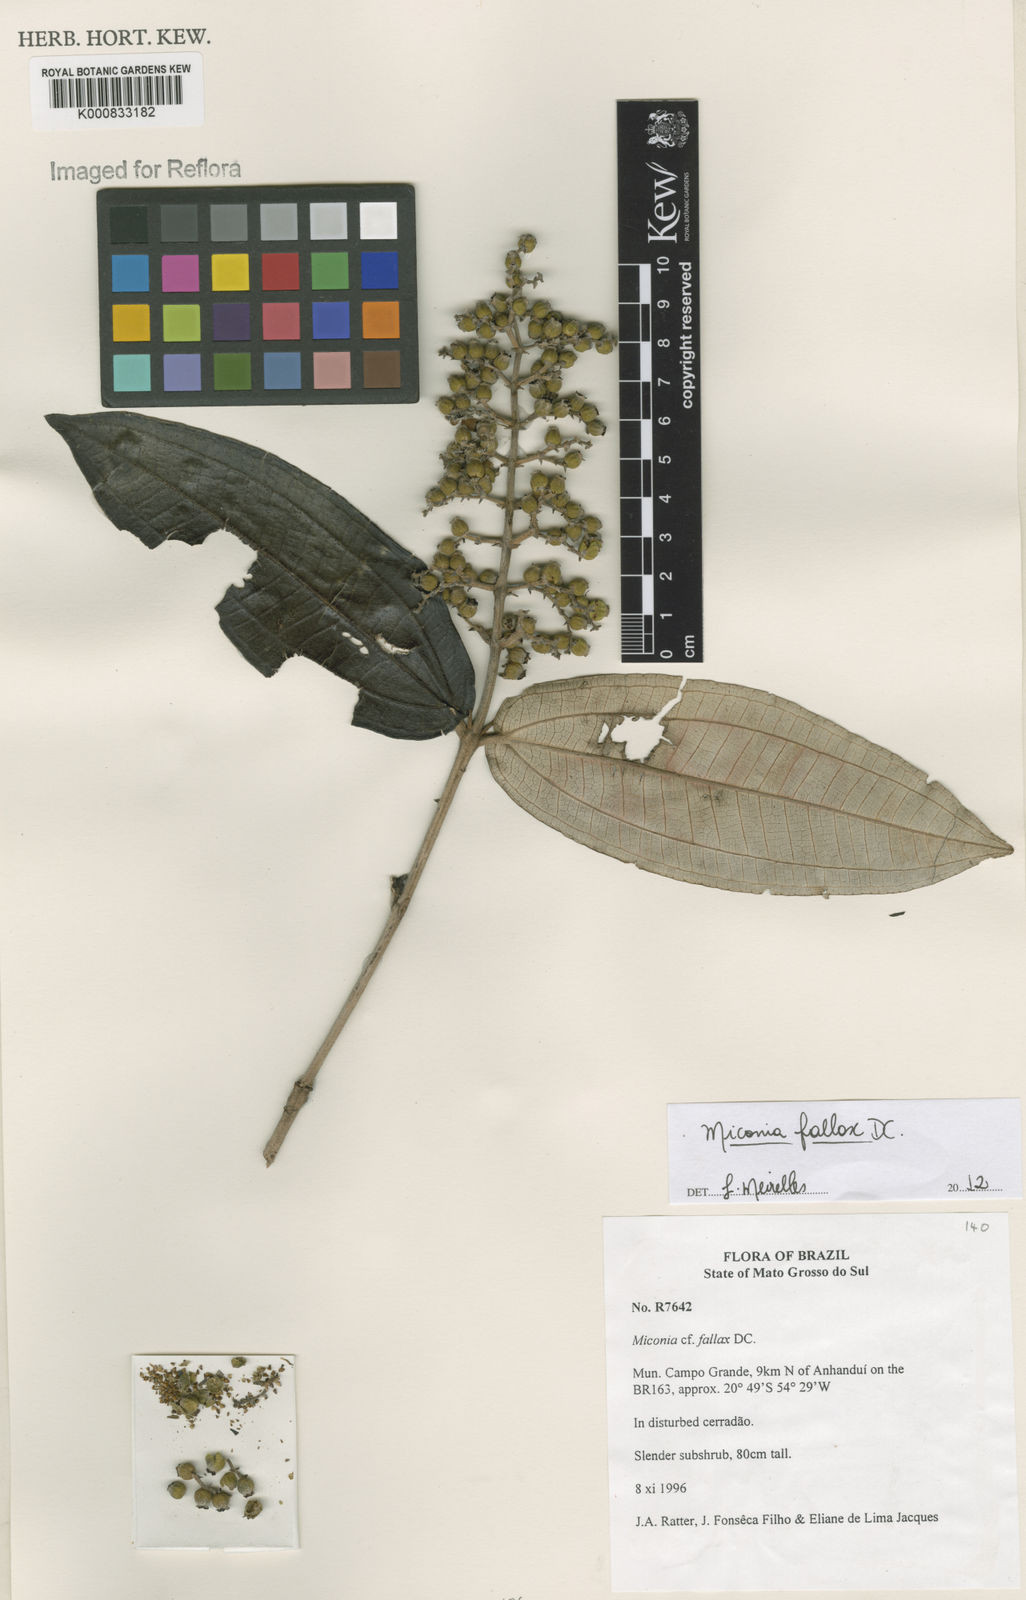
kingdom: Plantae
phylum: Tracheophyta
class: Magnoliopsida
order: Myrtales
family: Melastomataceae
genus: Miconia
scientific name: Miconia fallax
